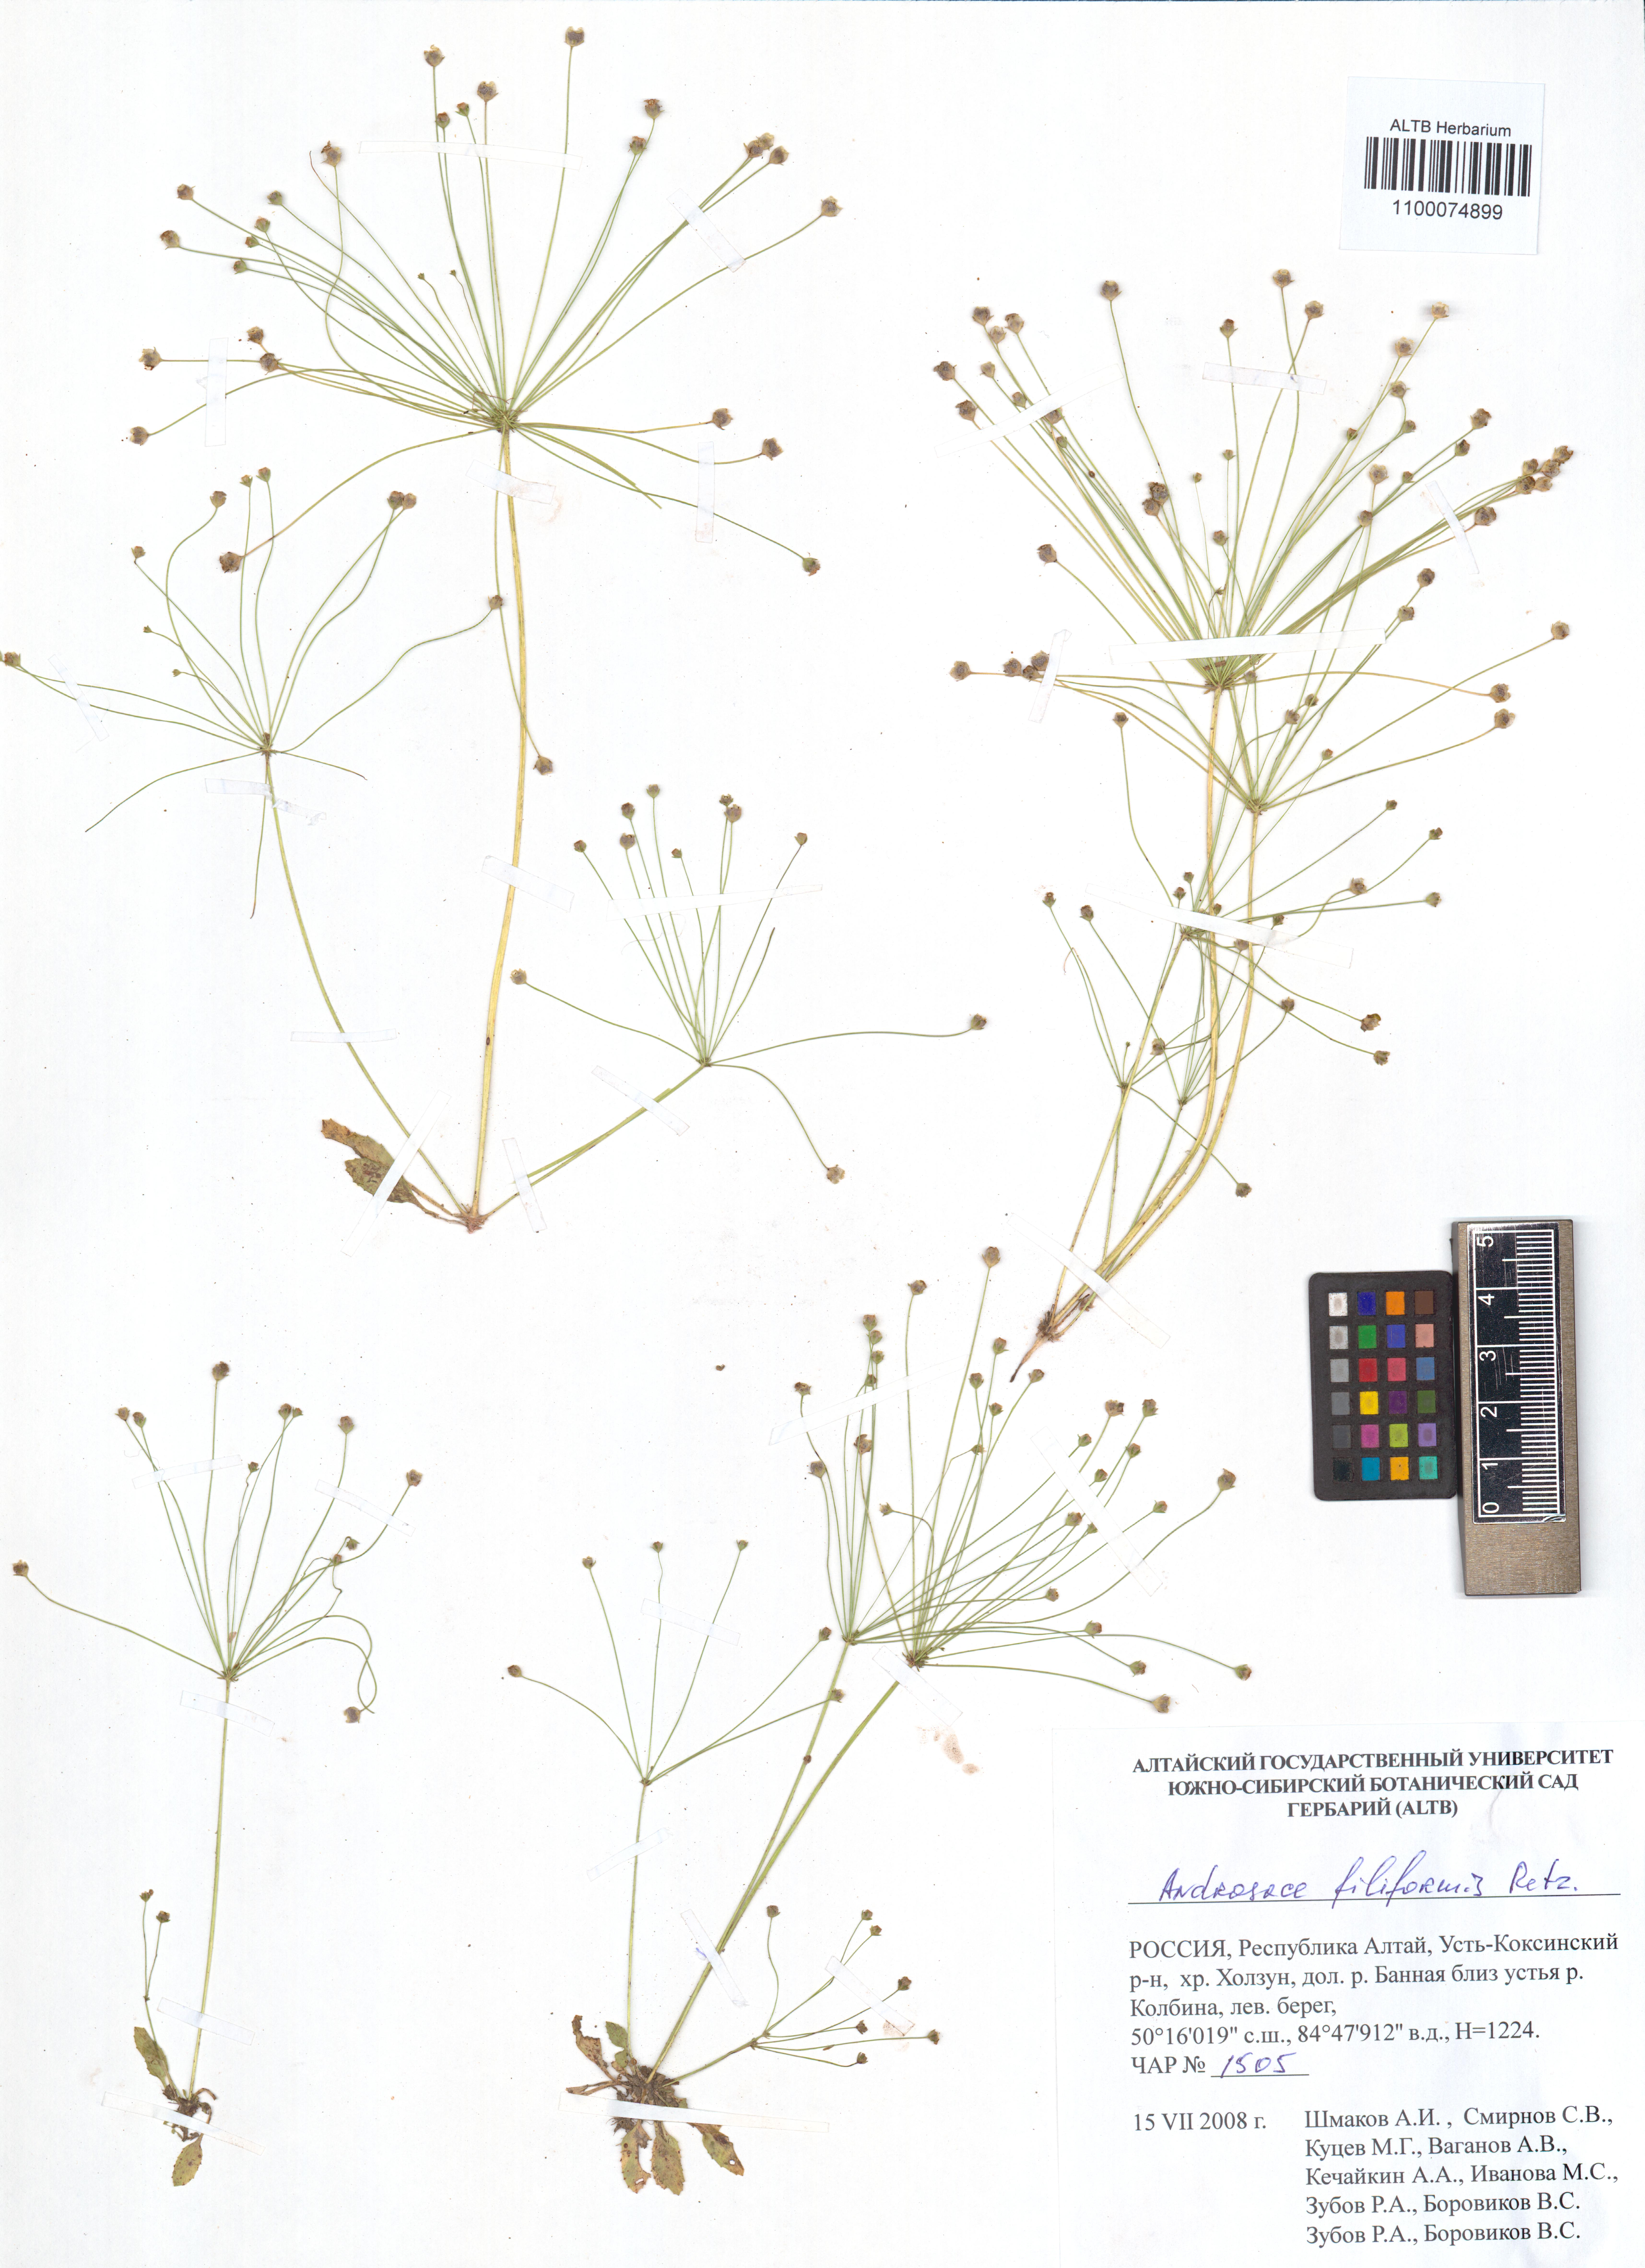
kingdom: Plantae
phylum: Tracheophyta
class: Magnoliopsida
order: Ericales
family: Primulaceae
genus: Androsace
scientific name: Androsace filiformis
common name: Filiform rock jasmine
